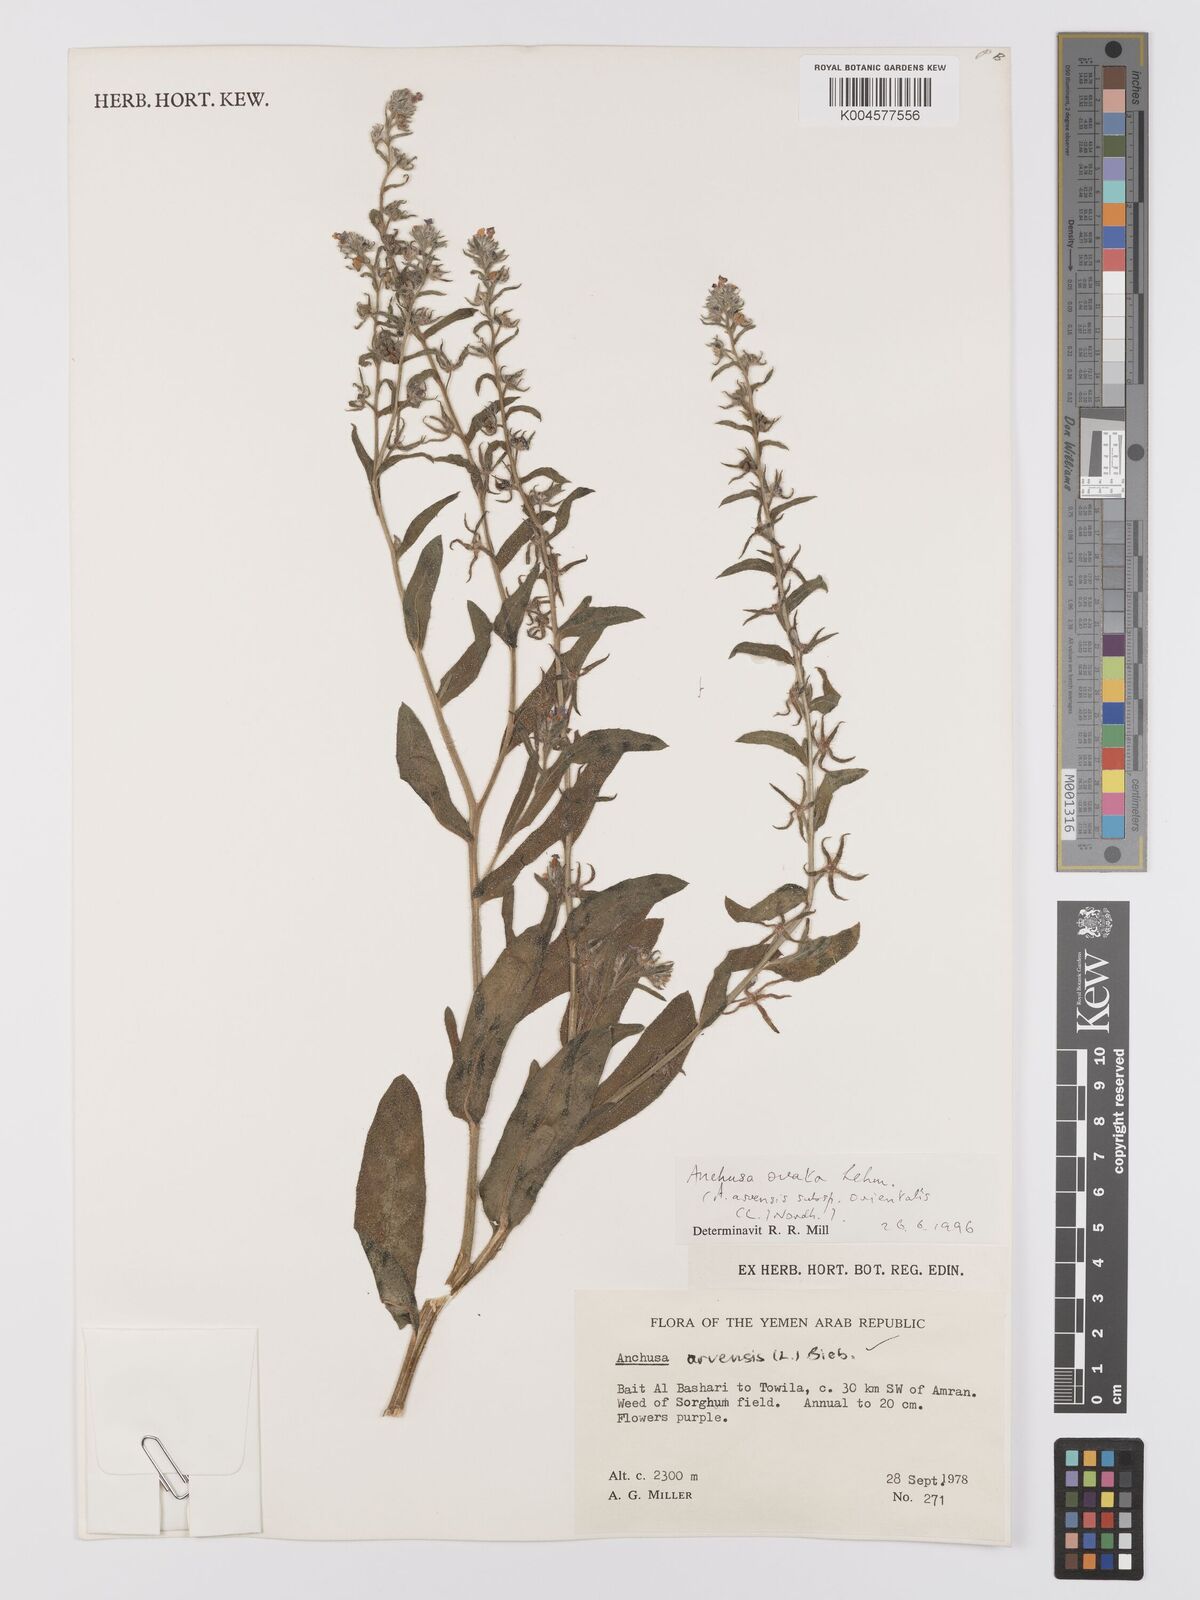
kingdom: Plantae
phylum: Tracheophyta
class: Magnoliopsida
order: Boraginales
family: Boraginaceae
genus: Lycopsis
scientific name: Lycopsis arvensis
